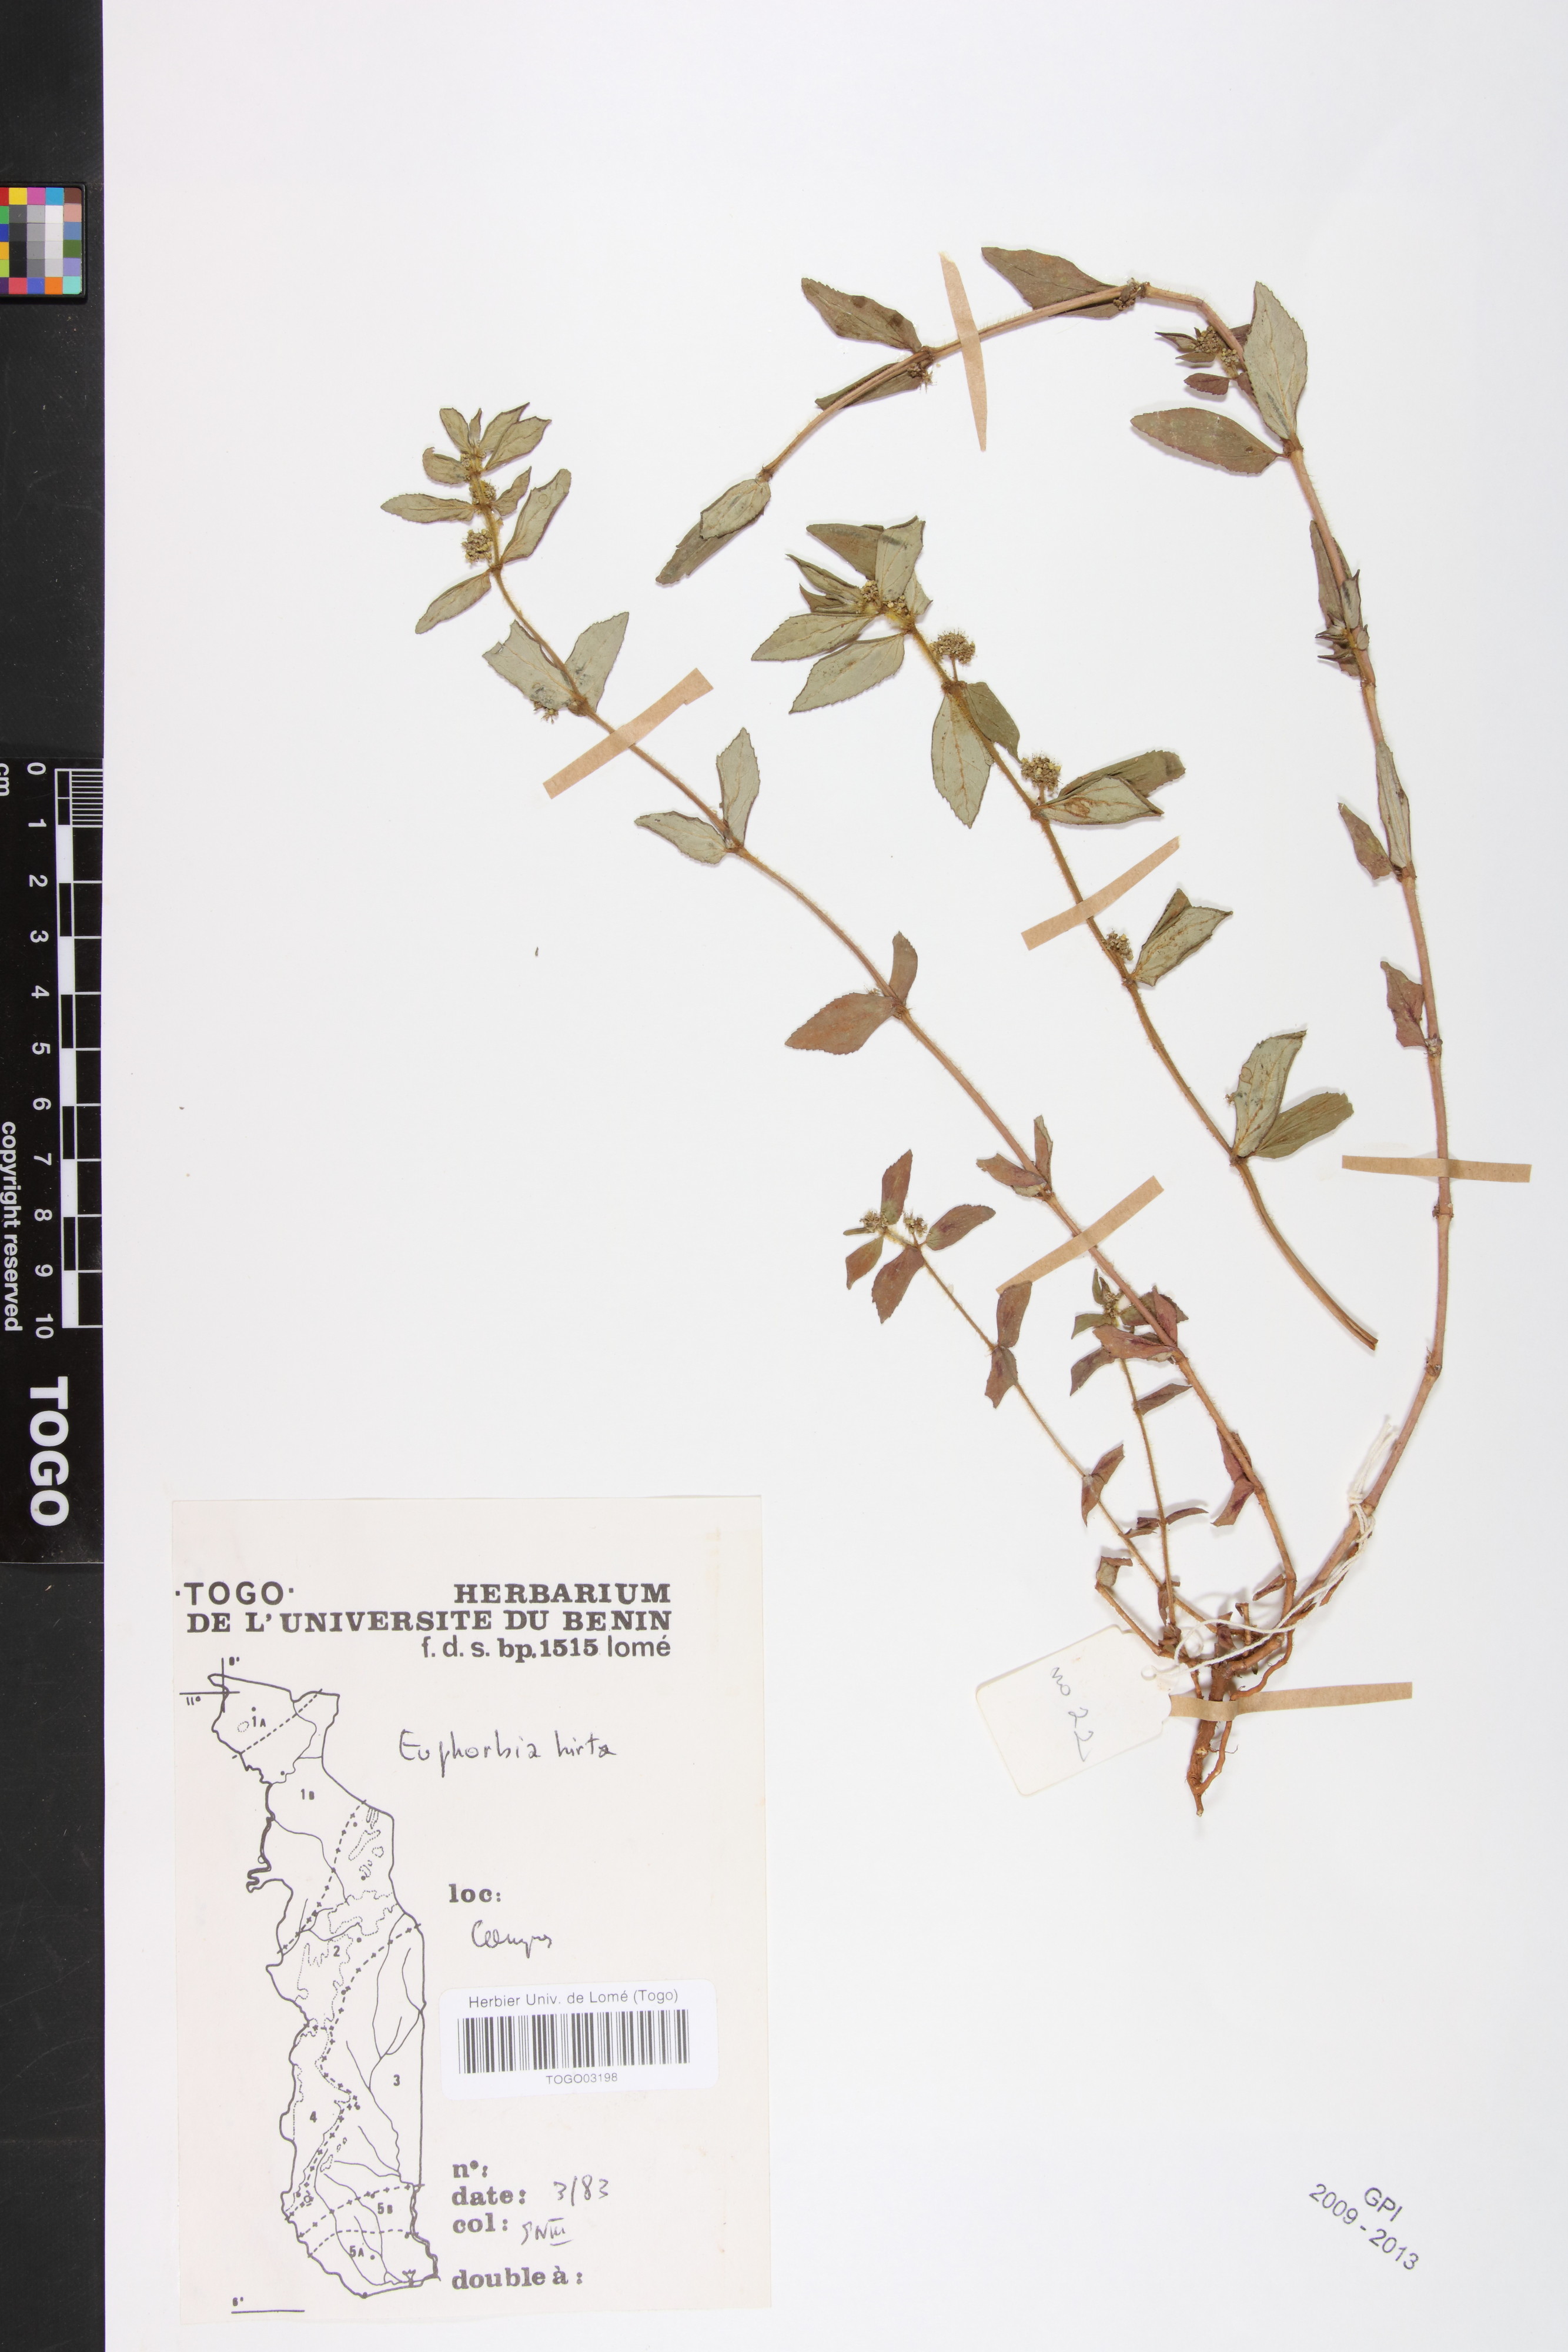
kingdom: Plantae
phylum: Tracheophyta
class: Magnoliopsida
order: Malpighiales
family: Euphorbiaceae
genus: Euphorbia
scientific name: Euphorbia hirta
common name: Pillpod sandmat
